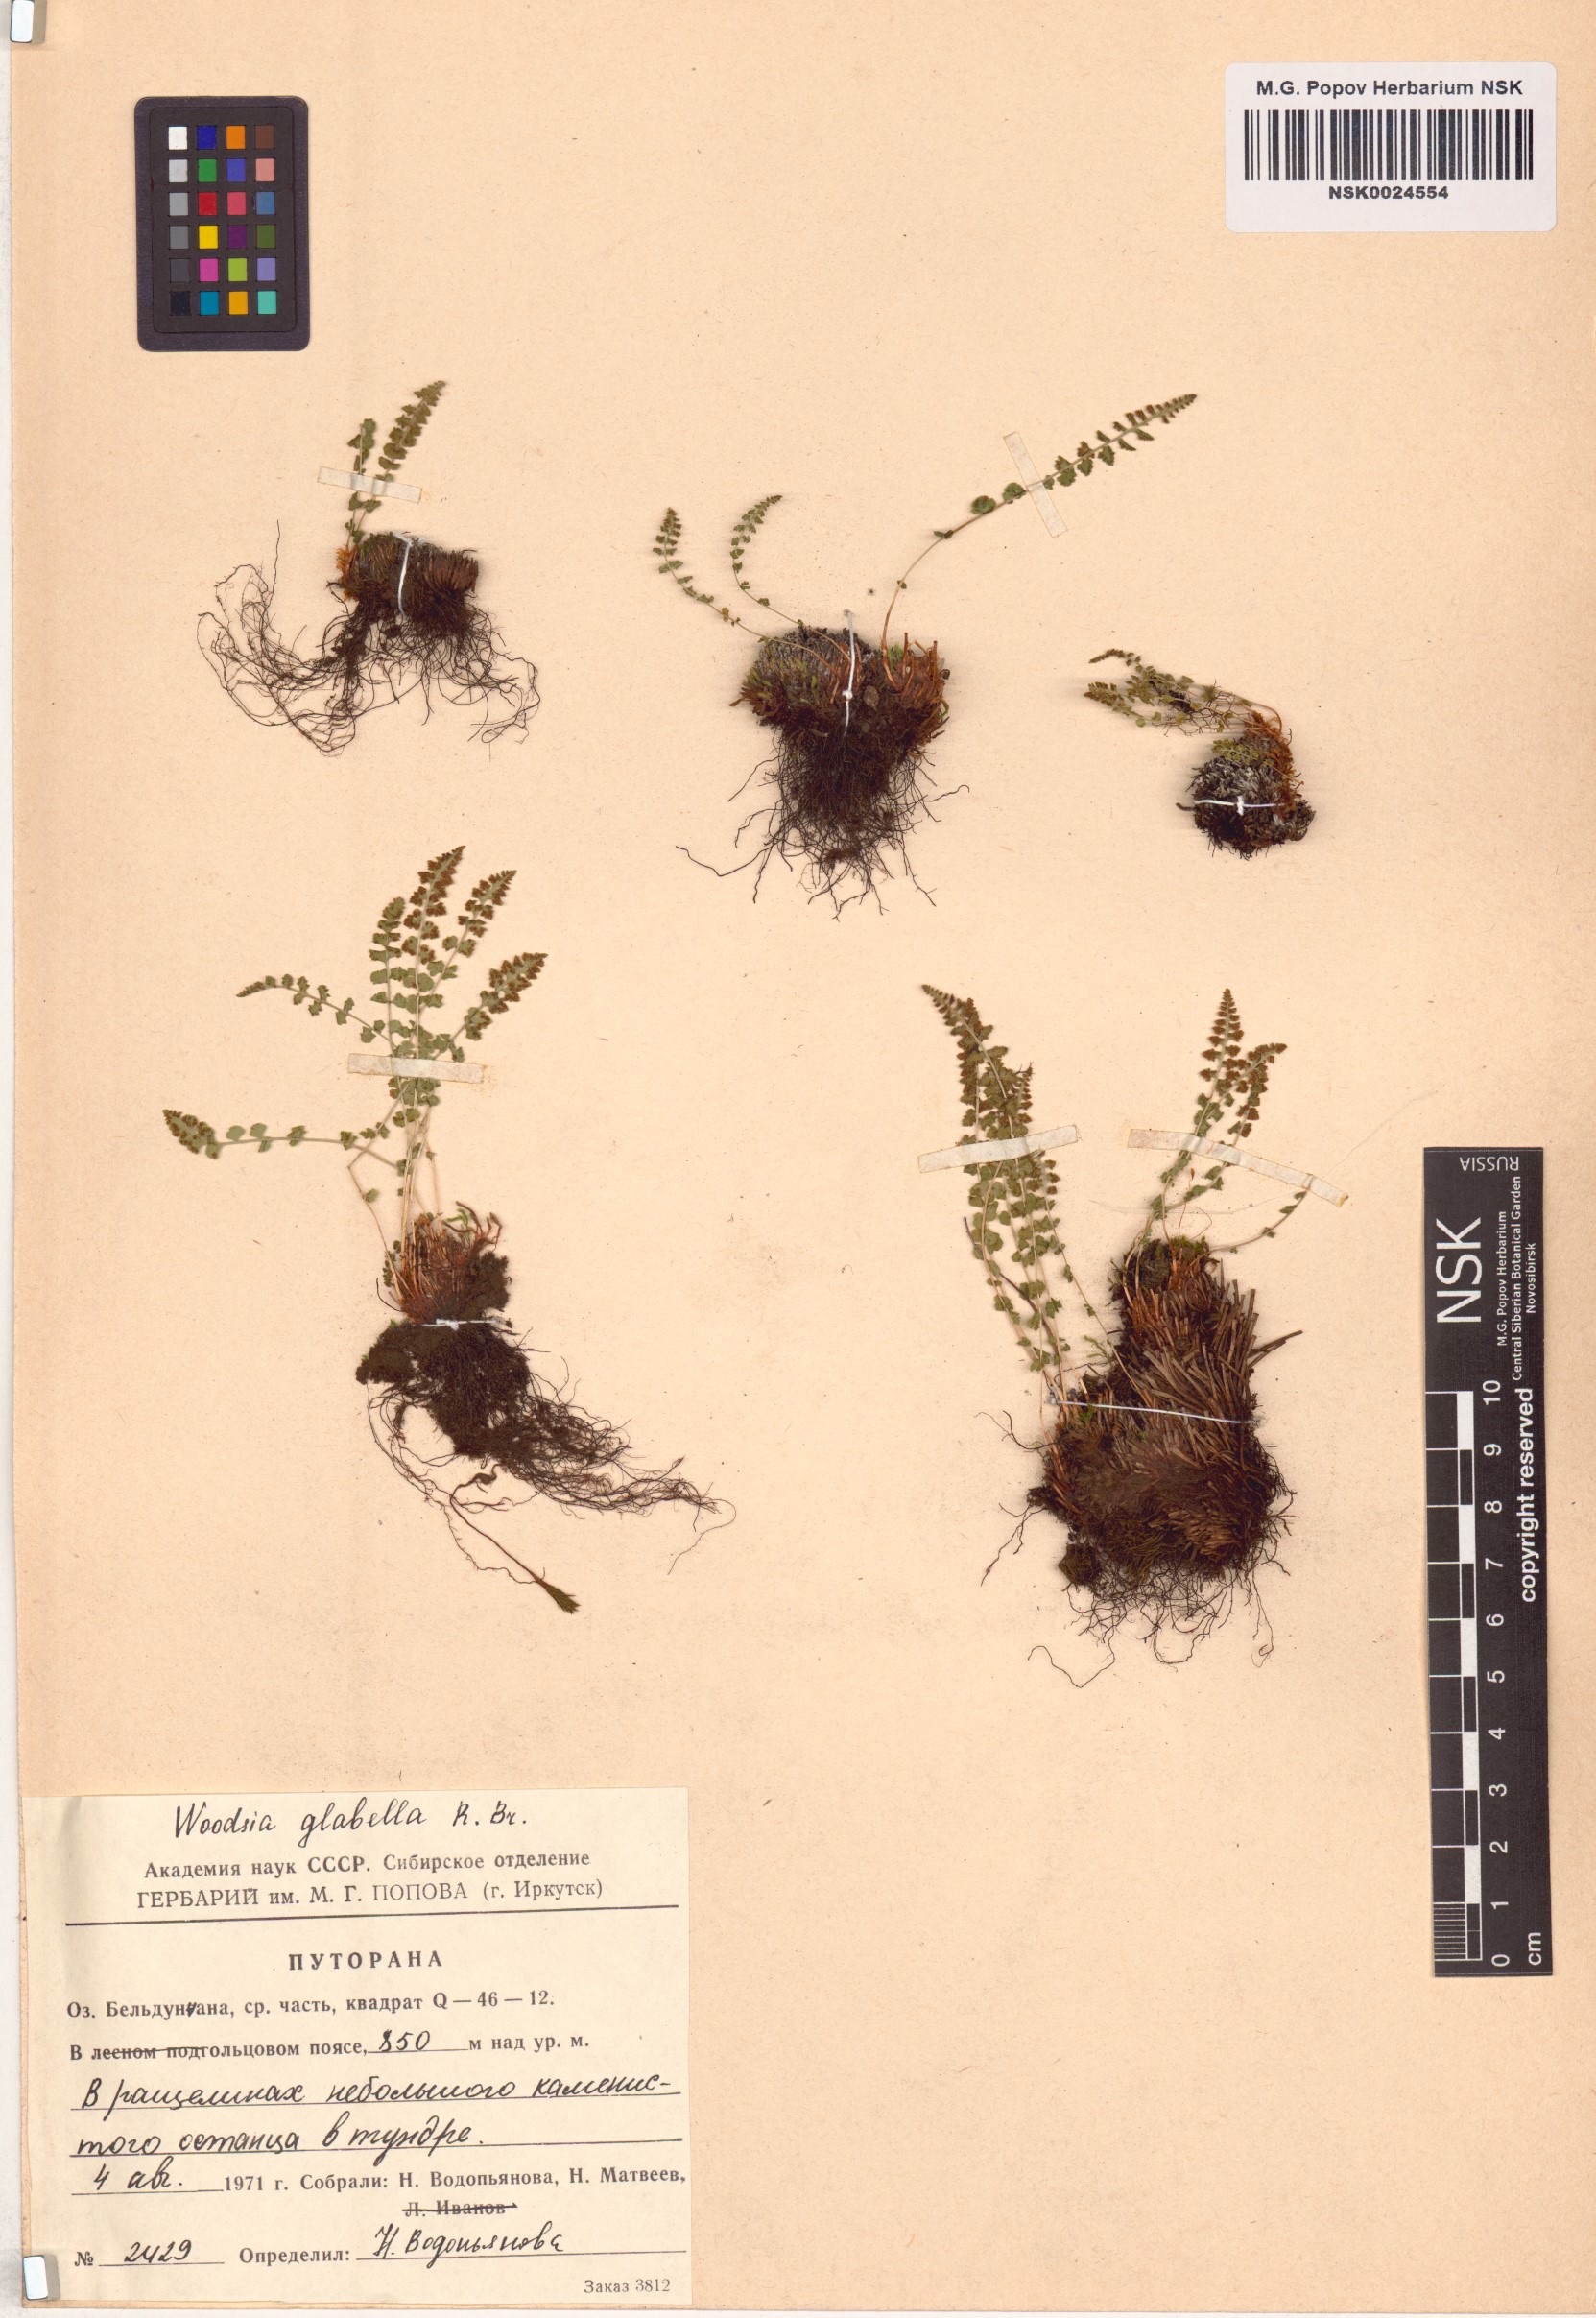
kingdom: Plantae
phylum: Tracheophyta
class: Polypodiopsida
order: Polypodiales
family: Woodsiaceae
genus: Woodsia
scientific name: Woodsia glabella
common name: Smooth woodsia
